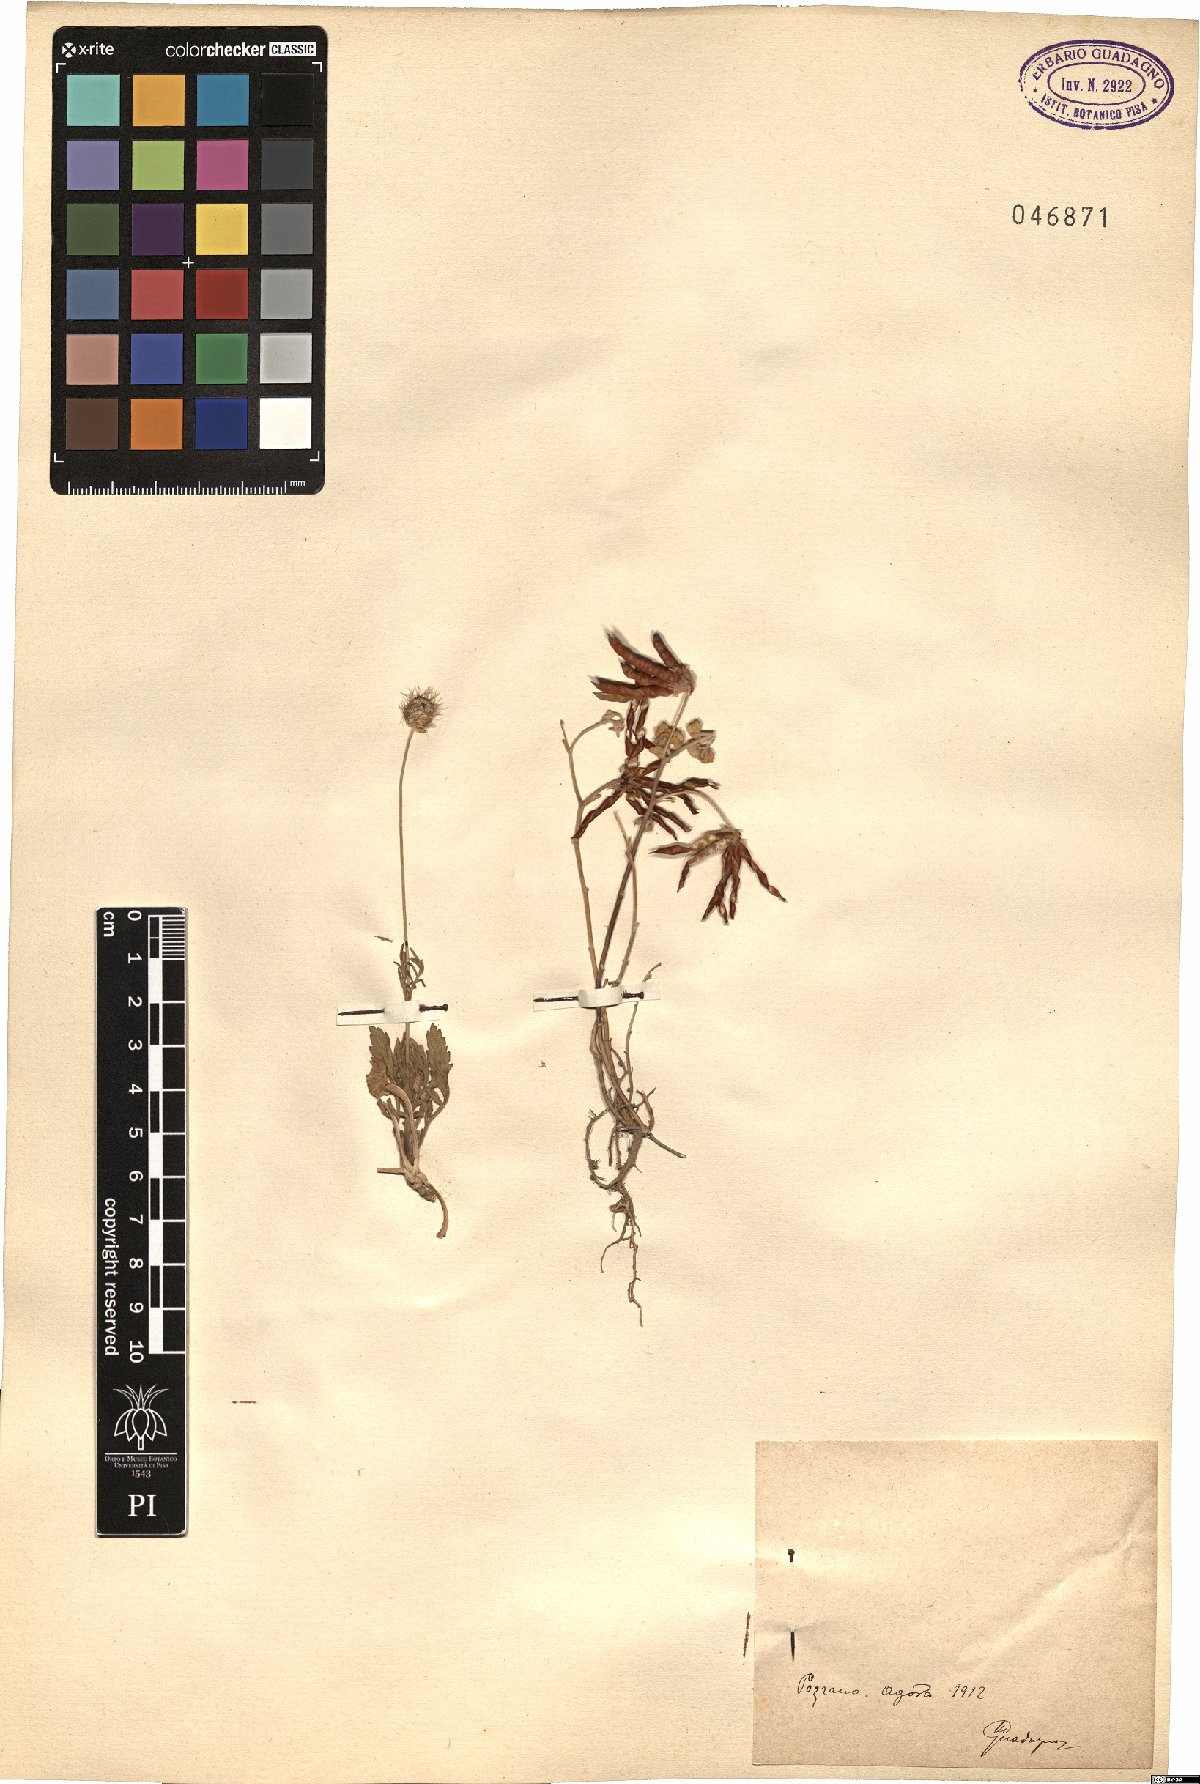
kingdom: Plantae
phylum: Tracheophyta
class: Magnoliopsida
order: Fabales
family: Fabaceae
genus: Lotus
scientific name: Lotus
